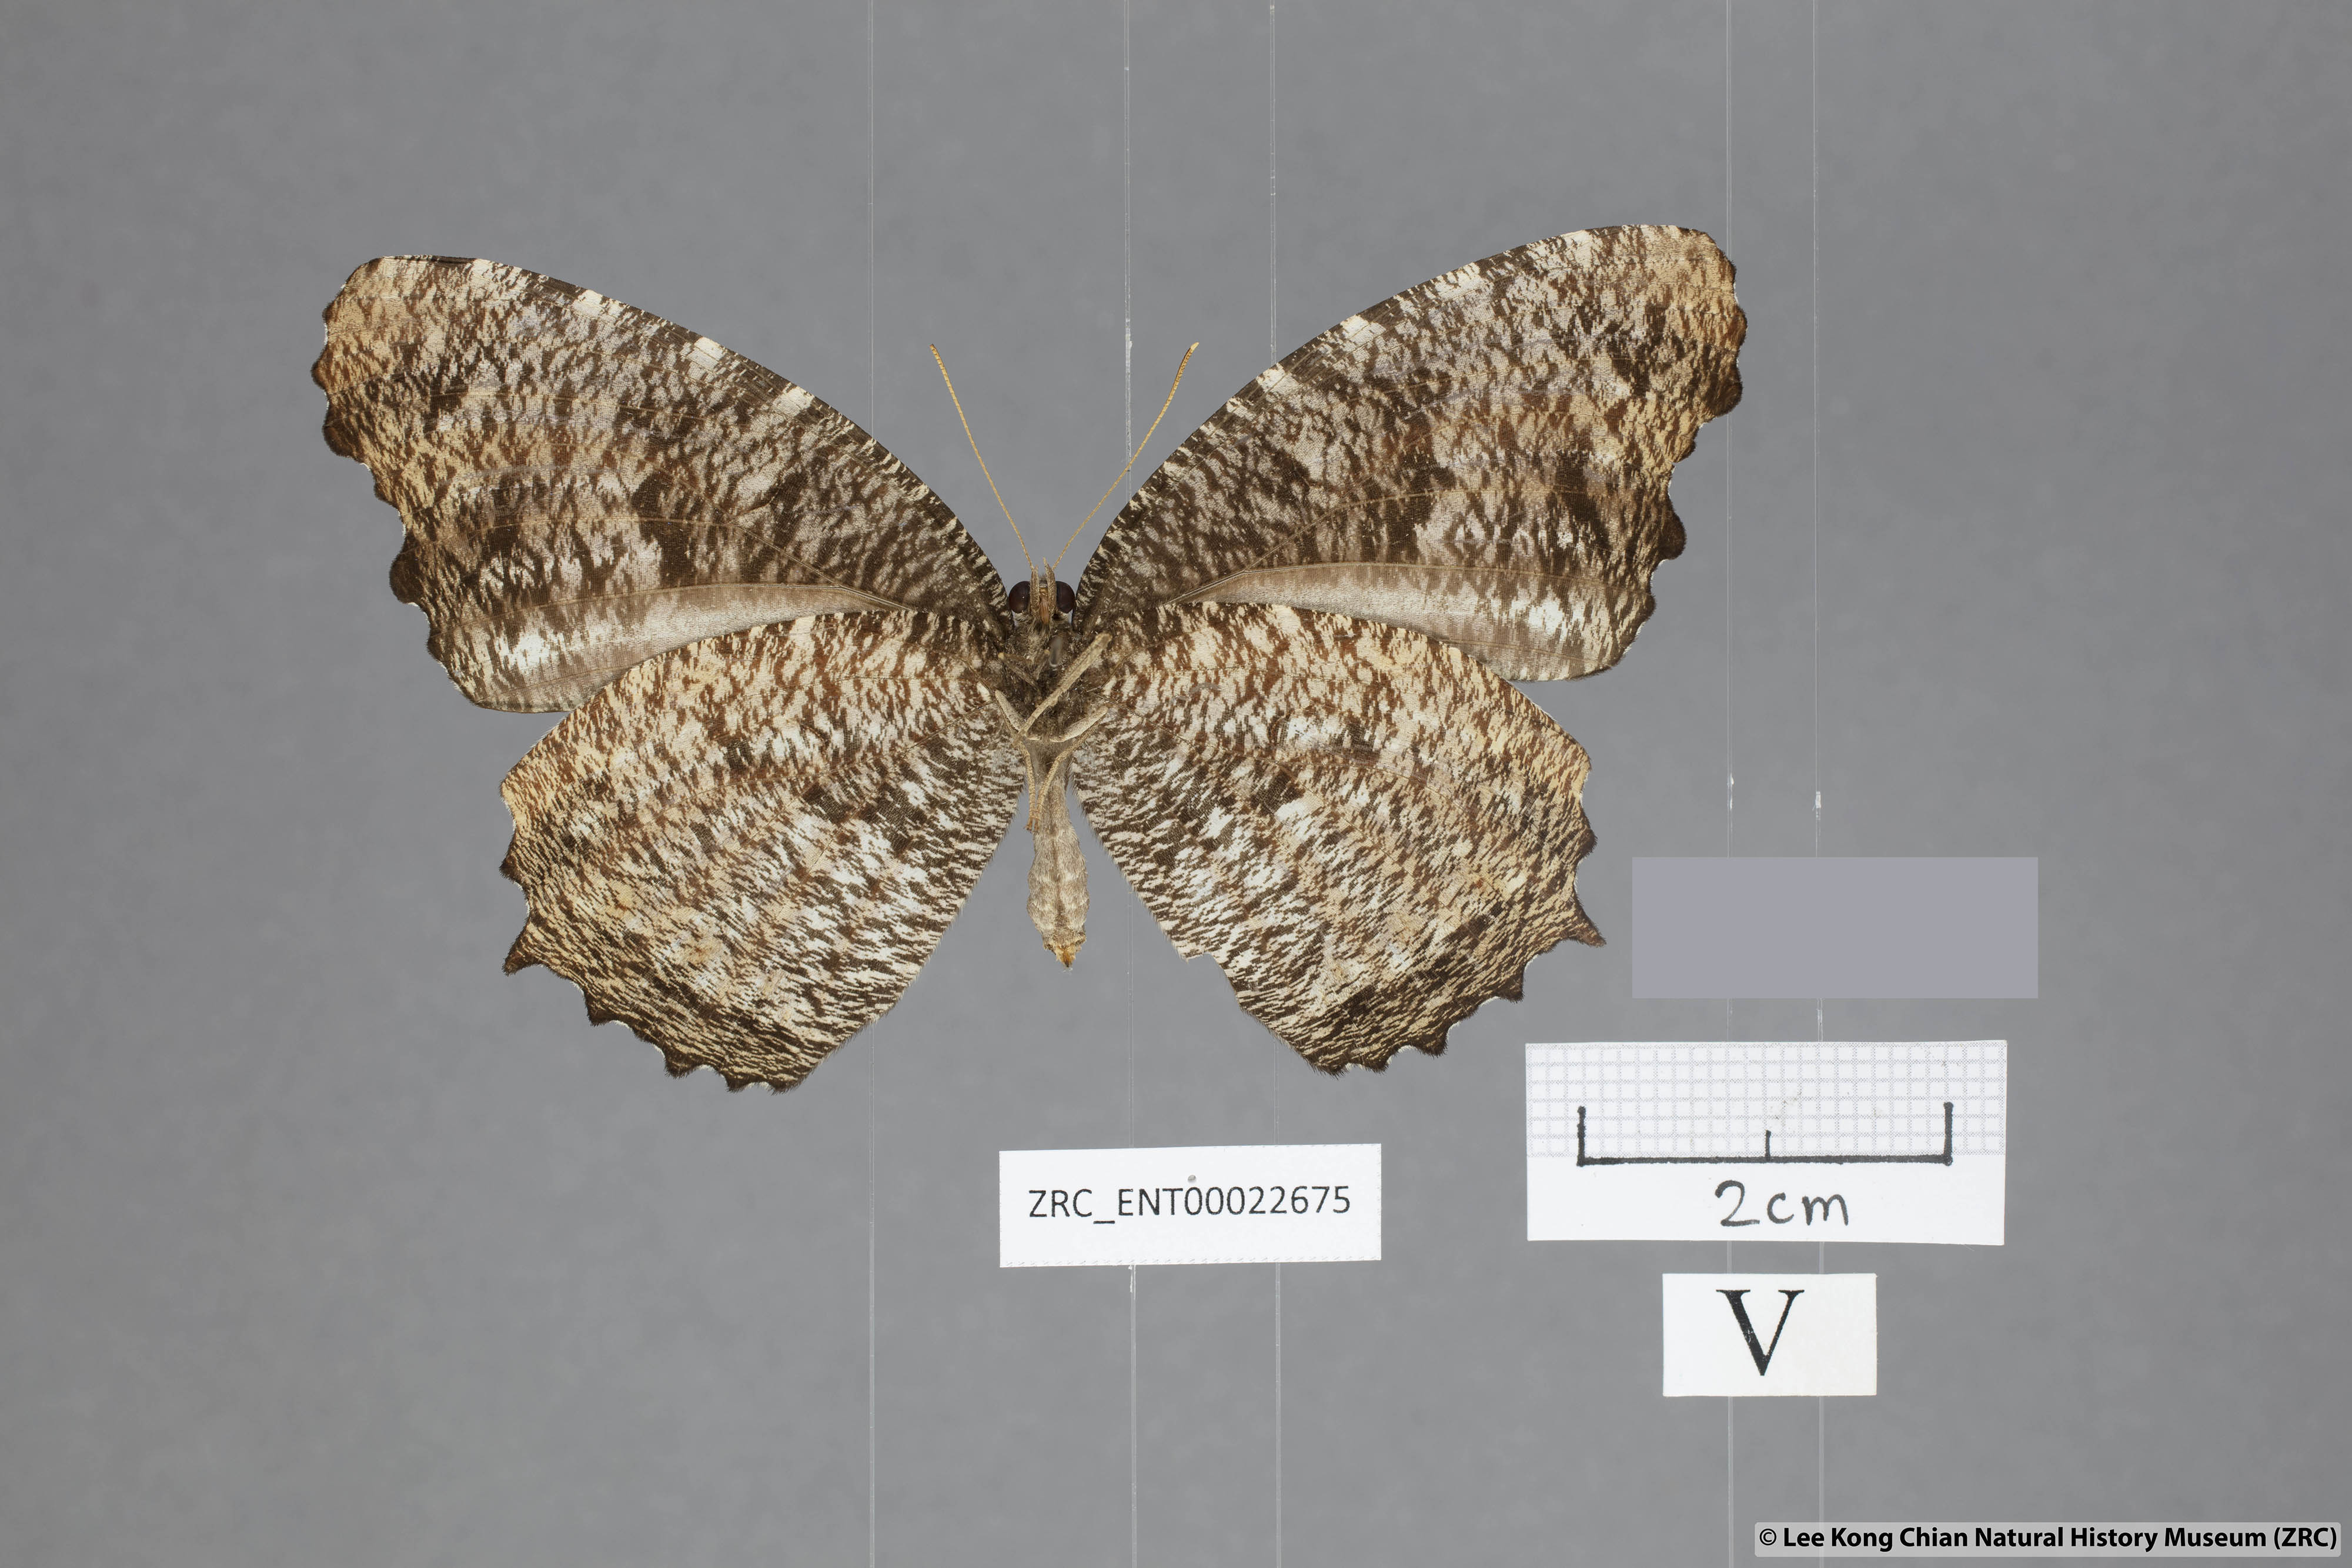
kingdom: Animalia
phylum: Arthropoda
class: Insecta
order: Lepidoptera
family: Nymphalidae
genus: Elymnias
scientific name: Elymnias casiphone
